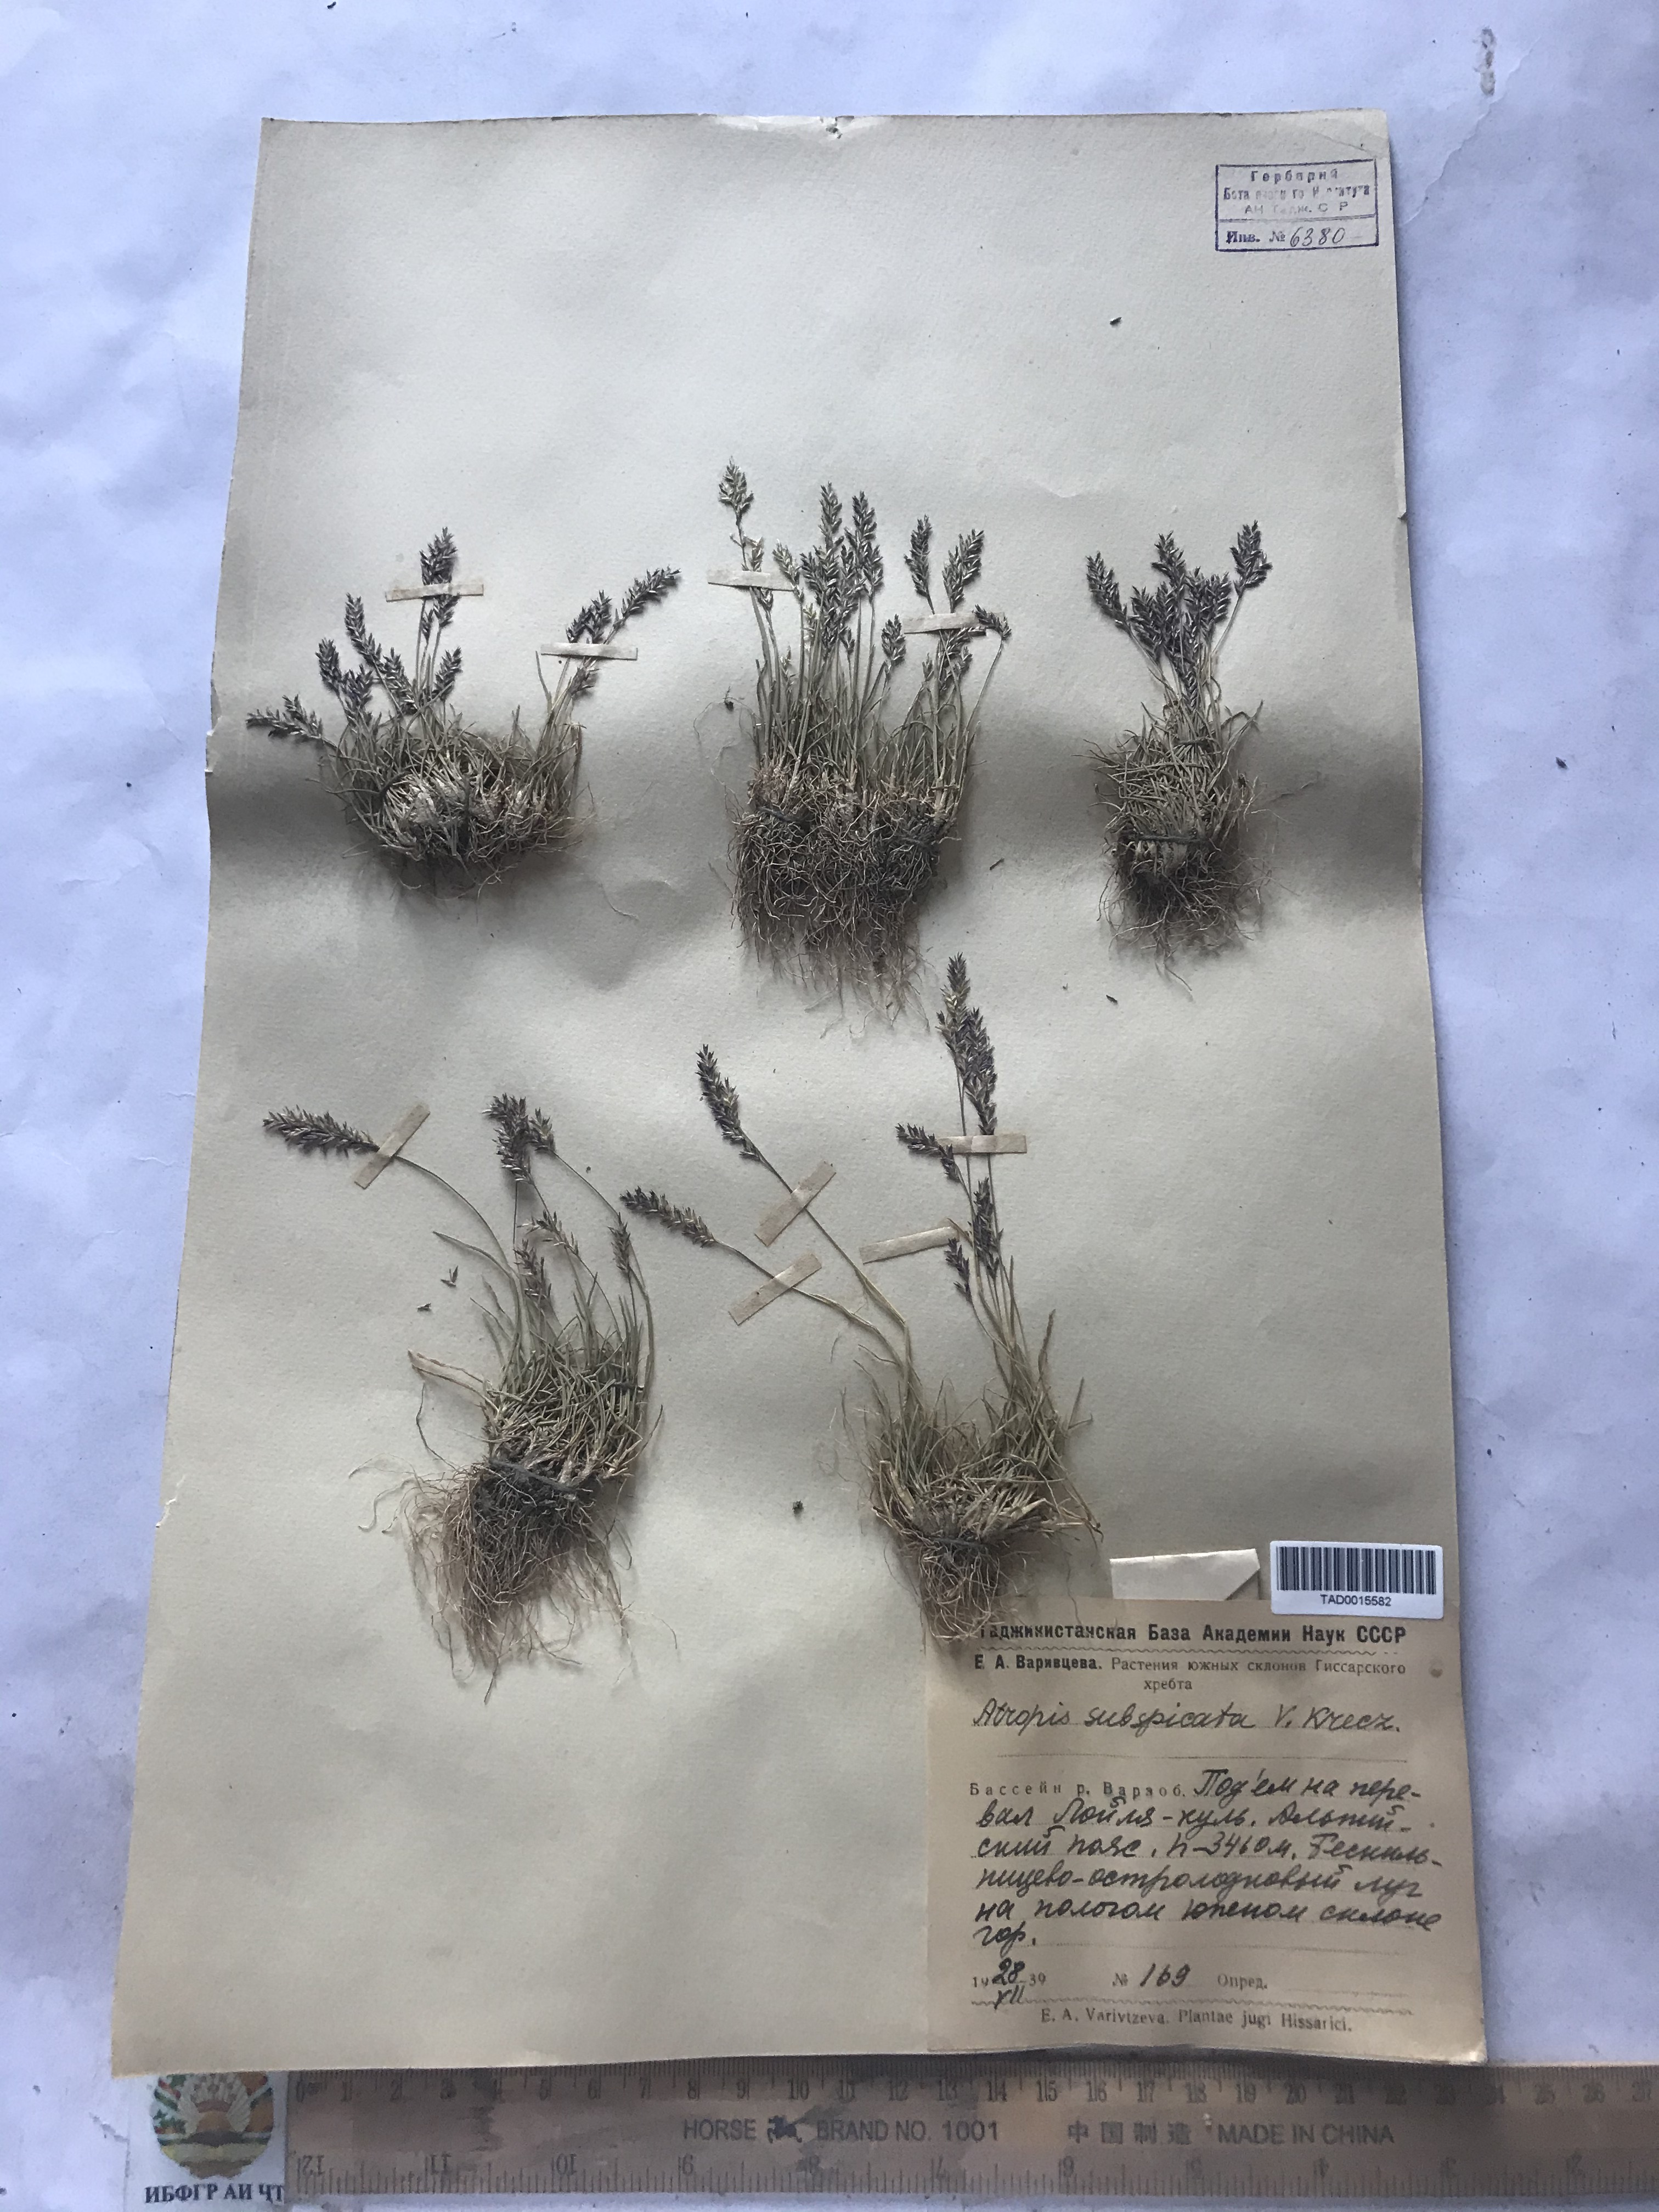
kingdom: Plantae
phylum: Tracheophyta
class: Liliopsida
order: Poales
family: Poaceae
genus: Puccinellia
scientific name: Puccinellia subspicata
